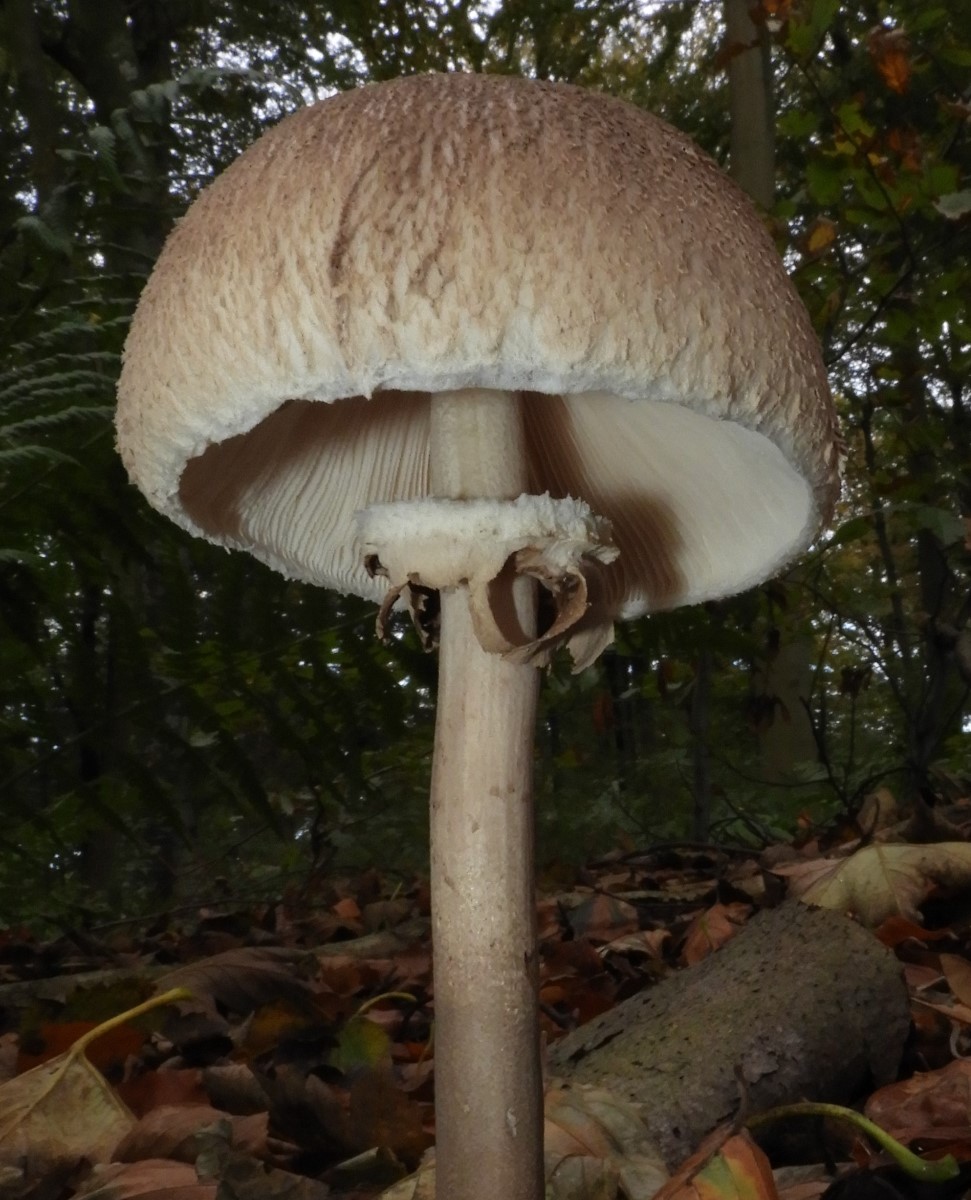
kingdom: Fungi
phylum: Basidiomycota
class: Agaricomycetes
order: Agaricales
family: Agaricaceae
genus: Macrolepiota
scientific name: Macrolepiota mastoidea
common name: puklet kæmpeparasolhat
